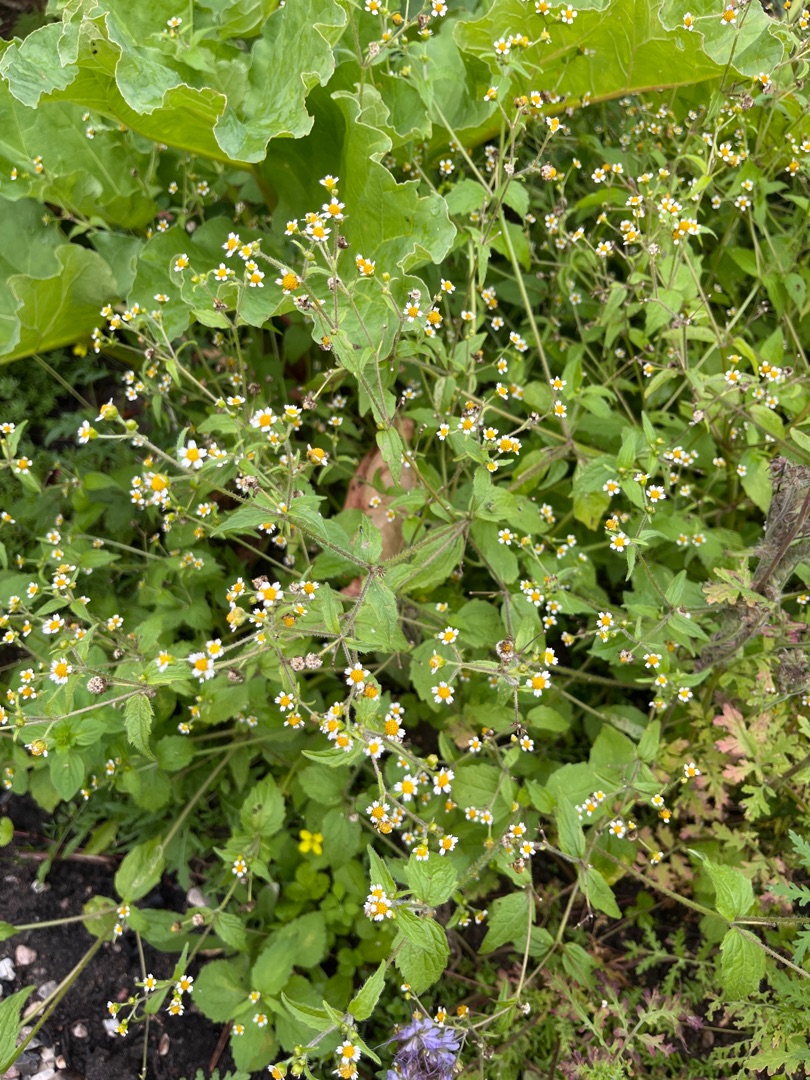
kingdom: Plantae
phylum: Tracheophyta
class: Magnoliopsida
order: Asterales
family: Asteraceae
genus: Galinsoga
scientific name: Galinsoga quadriradiata
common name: Kirtel-kortstråle
